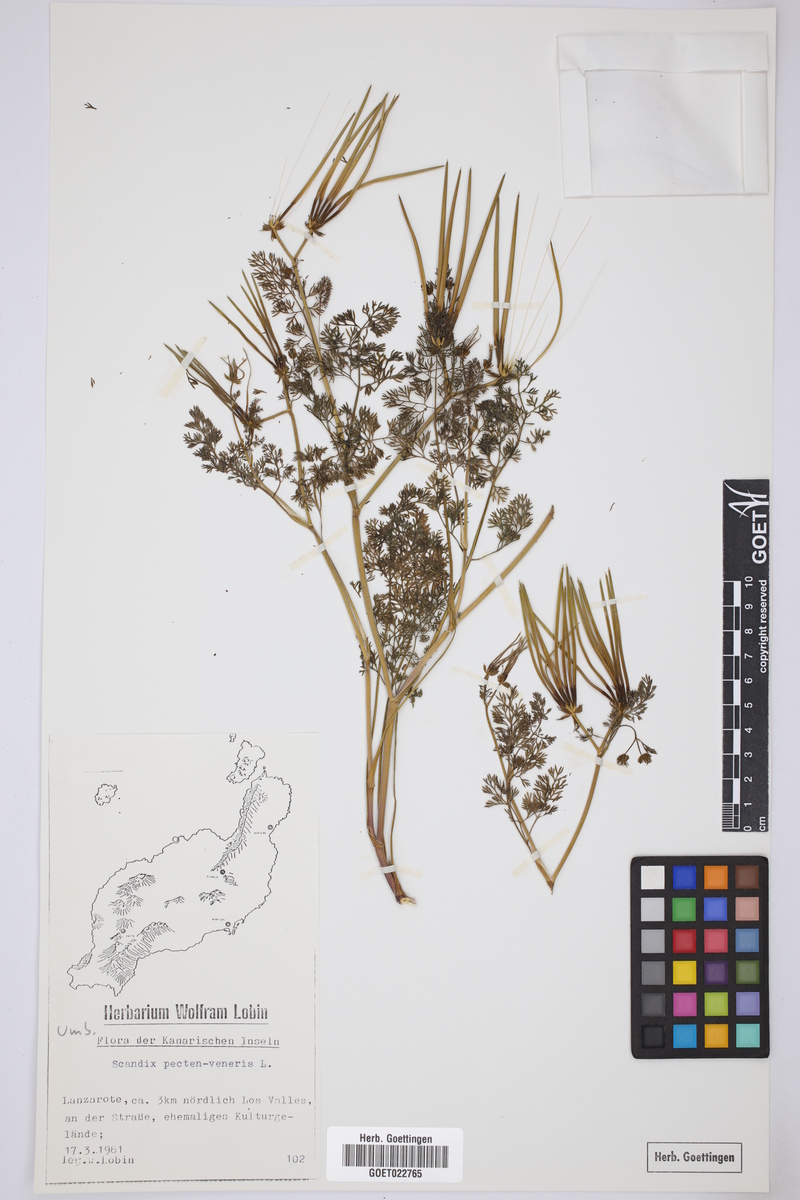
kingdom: Plantae
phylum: Tracheophyta
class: Magnoliopsida
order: Apiales
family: Apiaceae
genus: Scandix
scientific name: Scandix pecten-veneris
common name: Shepherd's-needle
